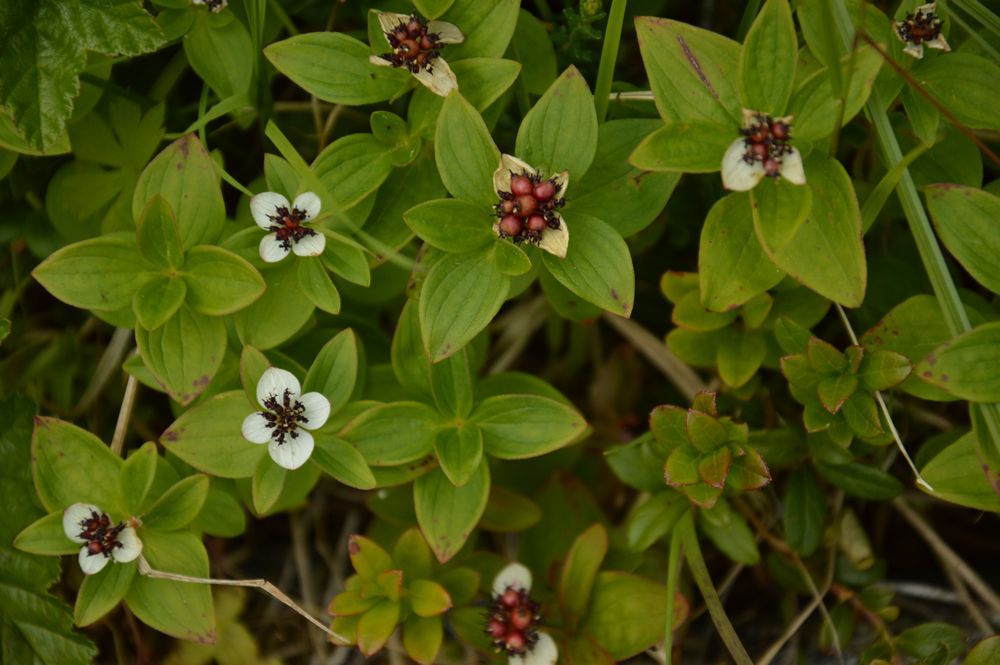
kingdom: Plantae
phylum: Tracheophyta
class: Magnoliopsida
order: Cornales
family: Cornaceae
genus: Cornus
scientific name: Cornus suecica
